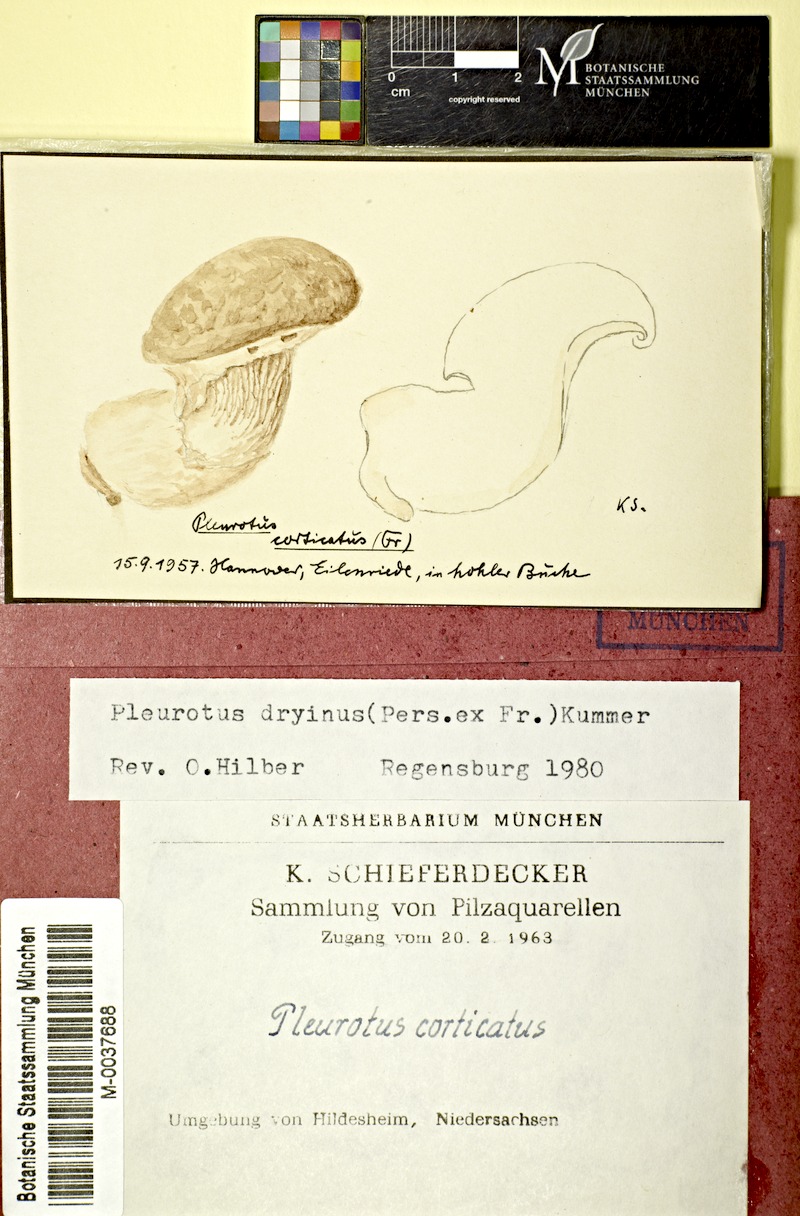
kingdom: Fungi
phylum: Basidiomycota
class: Agaricomycetes
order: Agaricales
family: Pleurotaceae
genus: Pleurotus
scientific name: Pleurotus dryinus
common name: Veiled oyster
